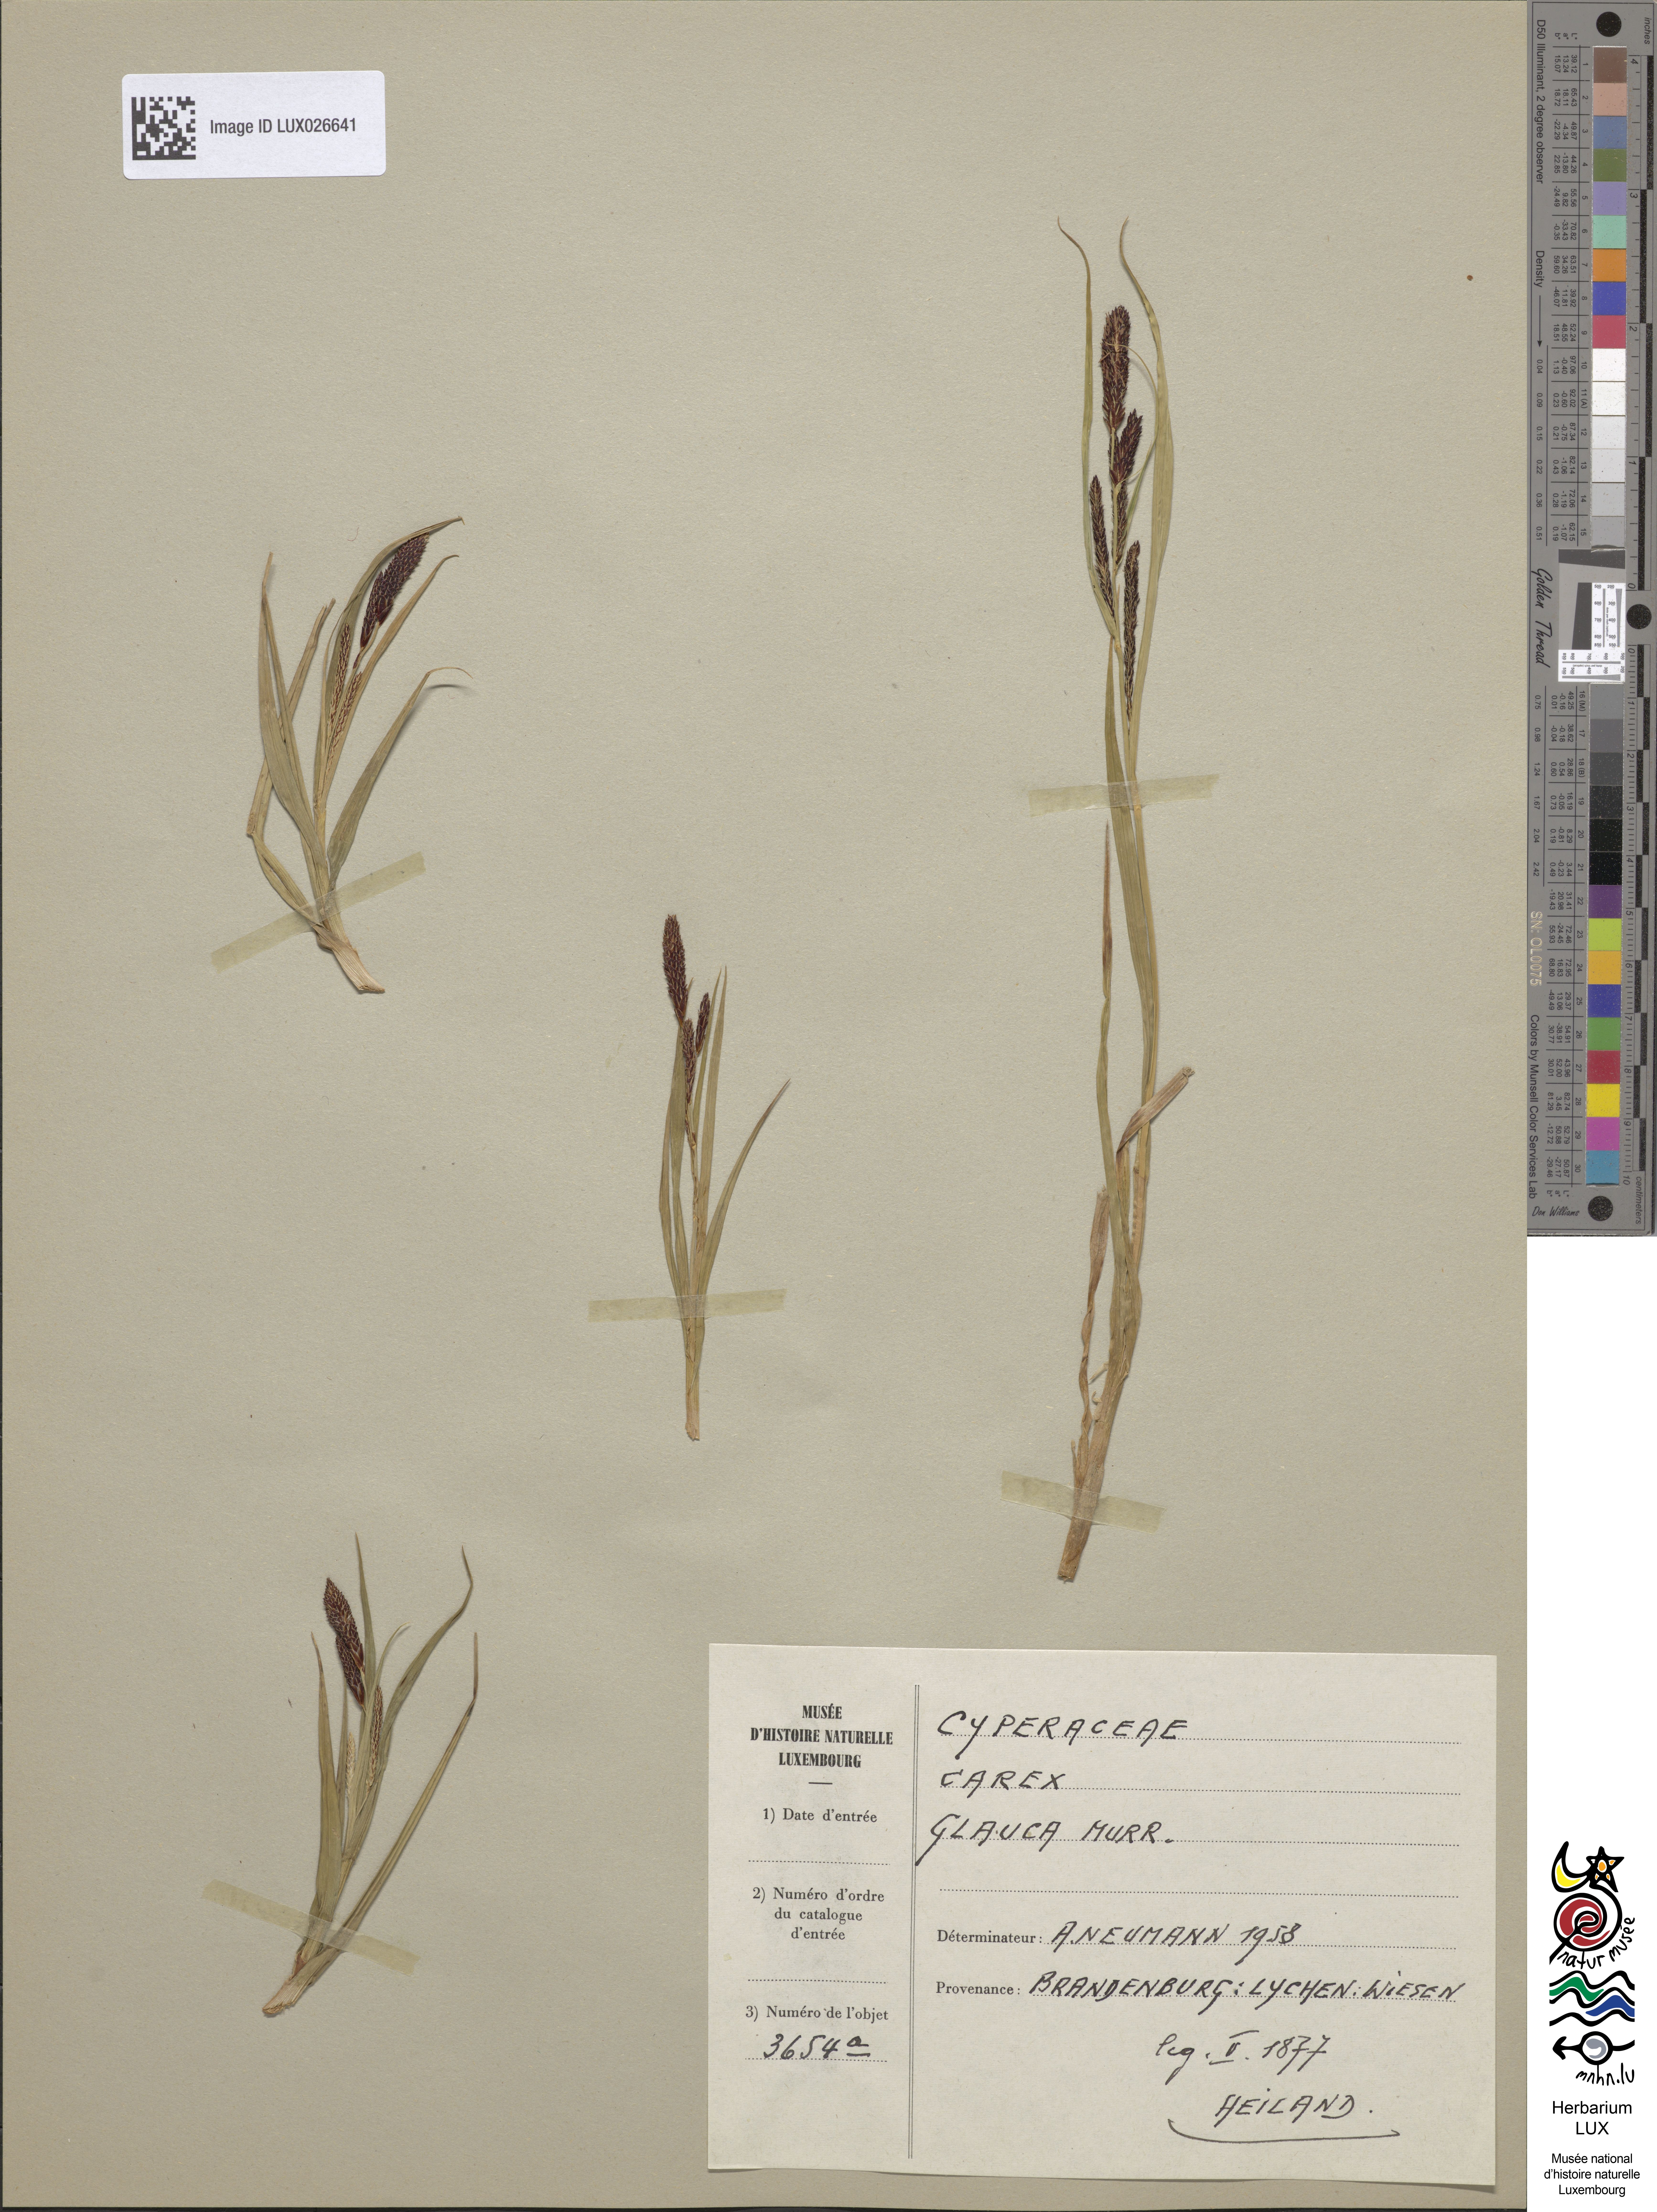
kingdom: Plantae
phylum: Tracheophyta
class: Liliopsida
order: Poales
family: Cyperaceae
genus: Carex
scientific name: Carex flacca
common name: Glaucous sedge
